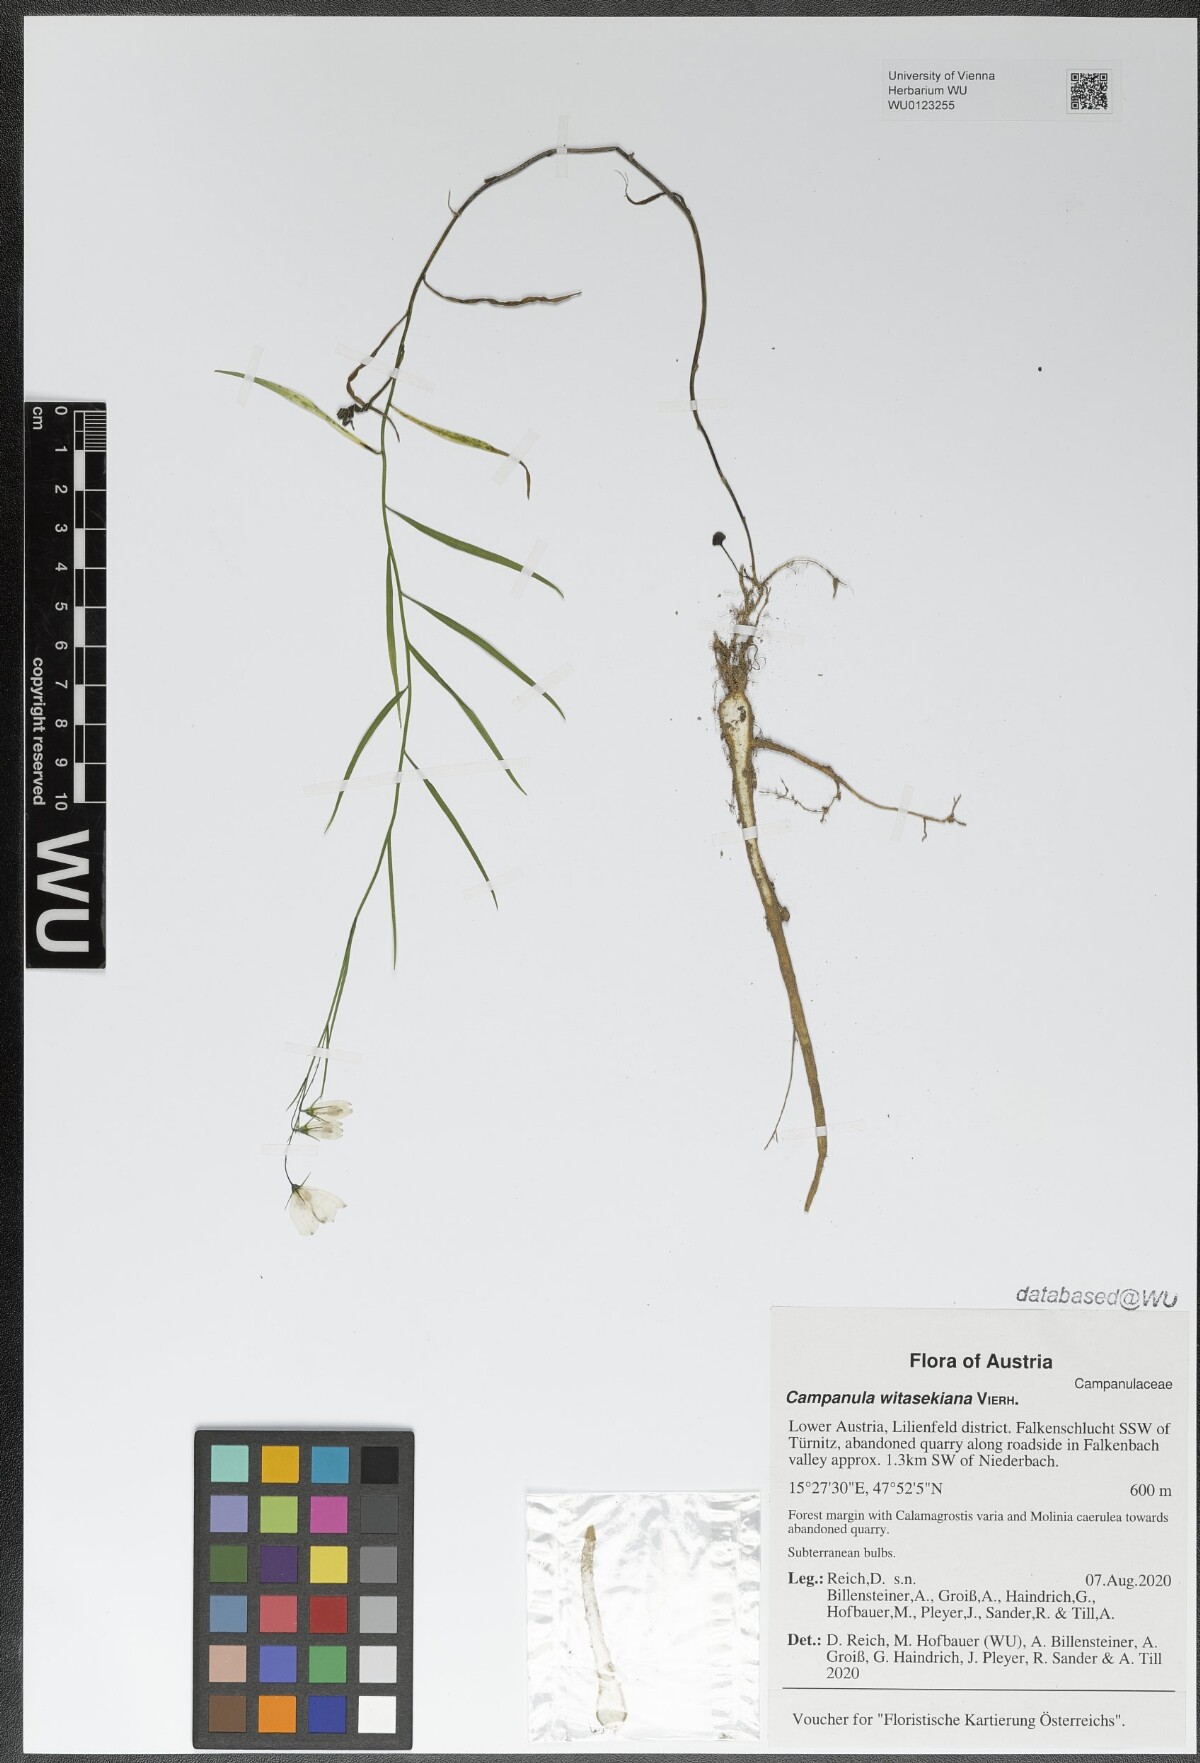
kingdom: Plantae
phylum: Tracheophyta
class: Magnoliopsida
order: Asterales
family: Campanulaceae
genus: Campanula
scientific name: Campanula witasekiana
